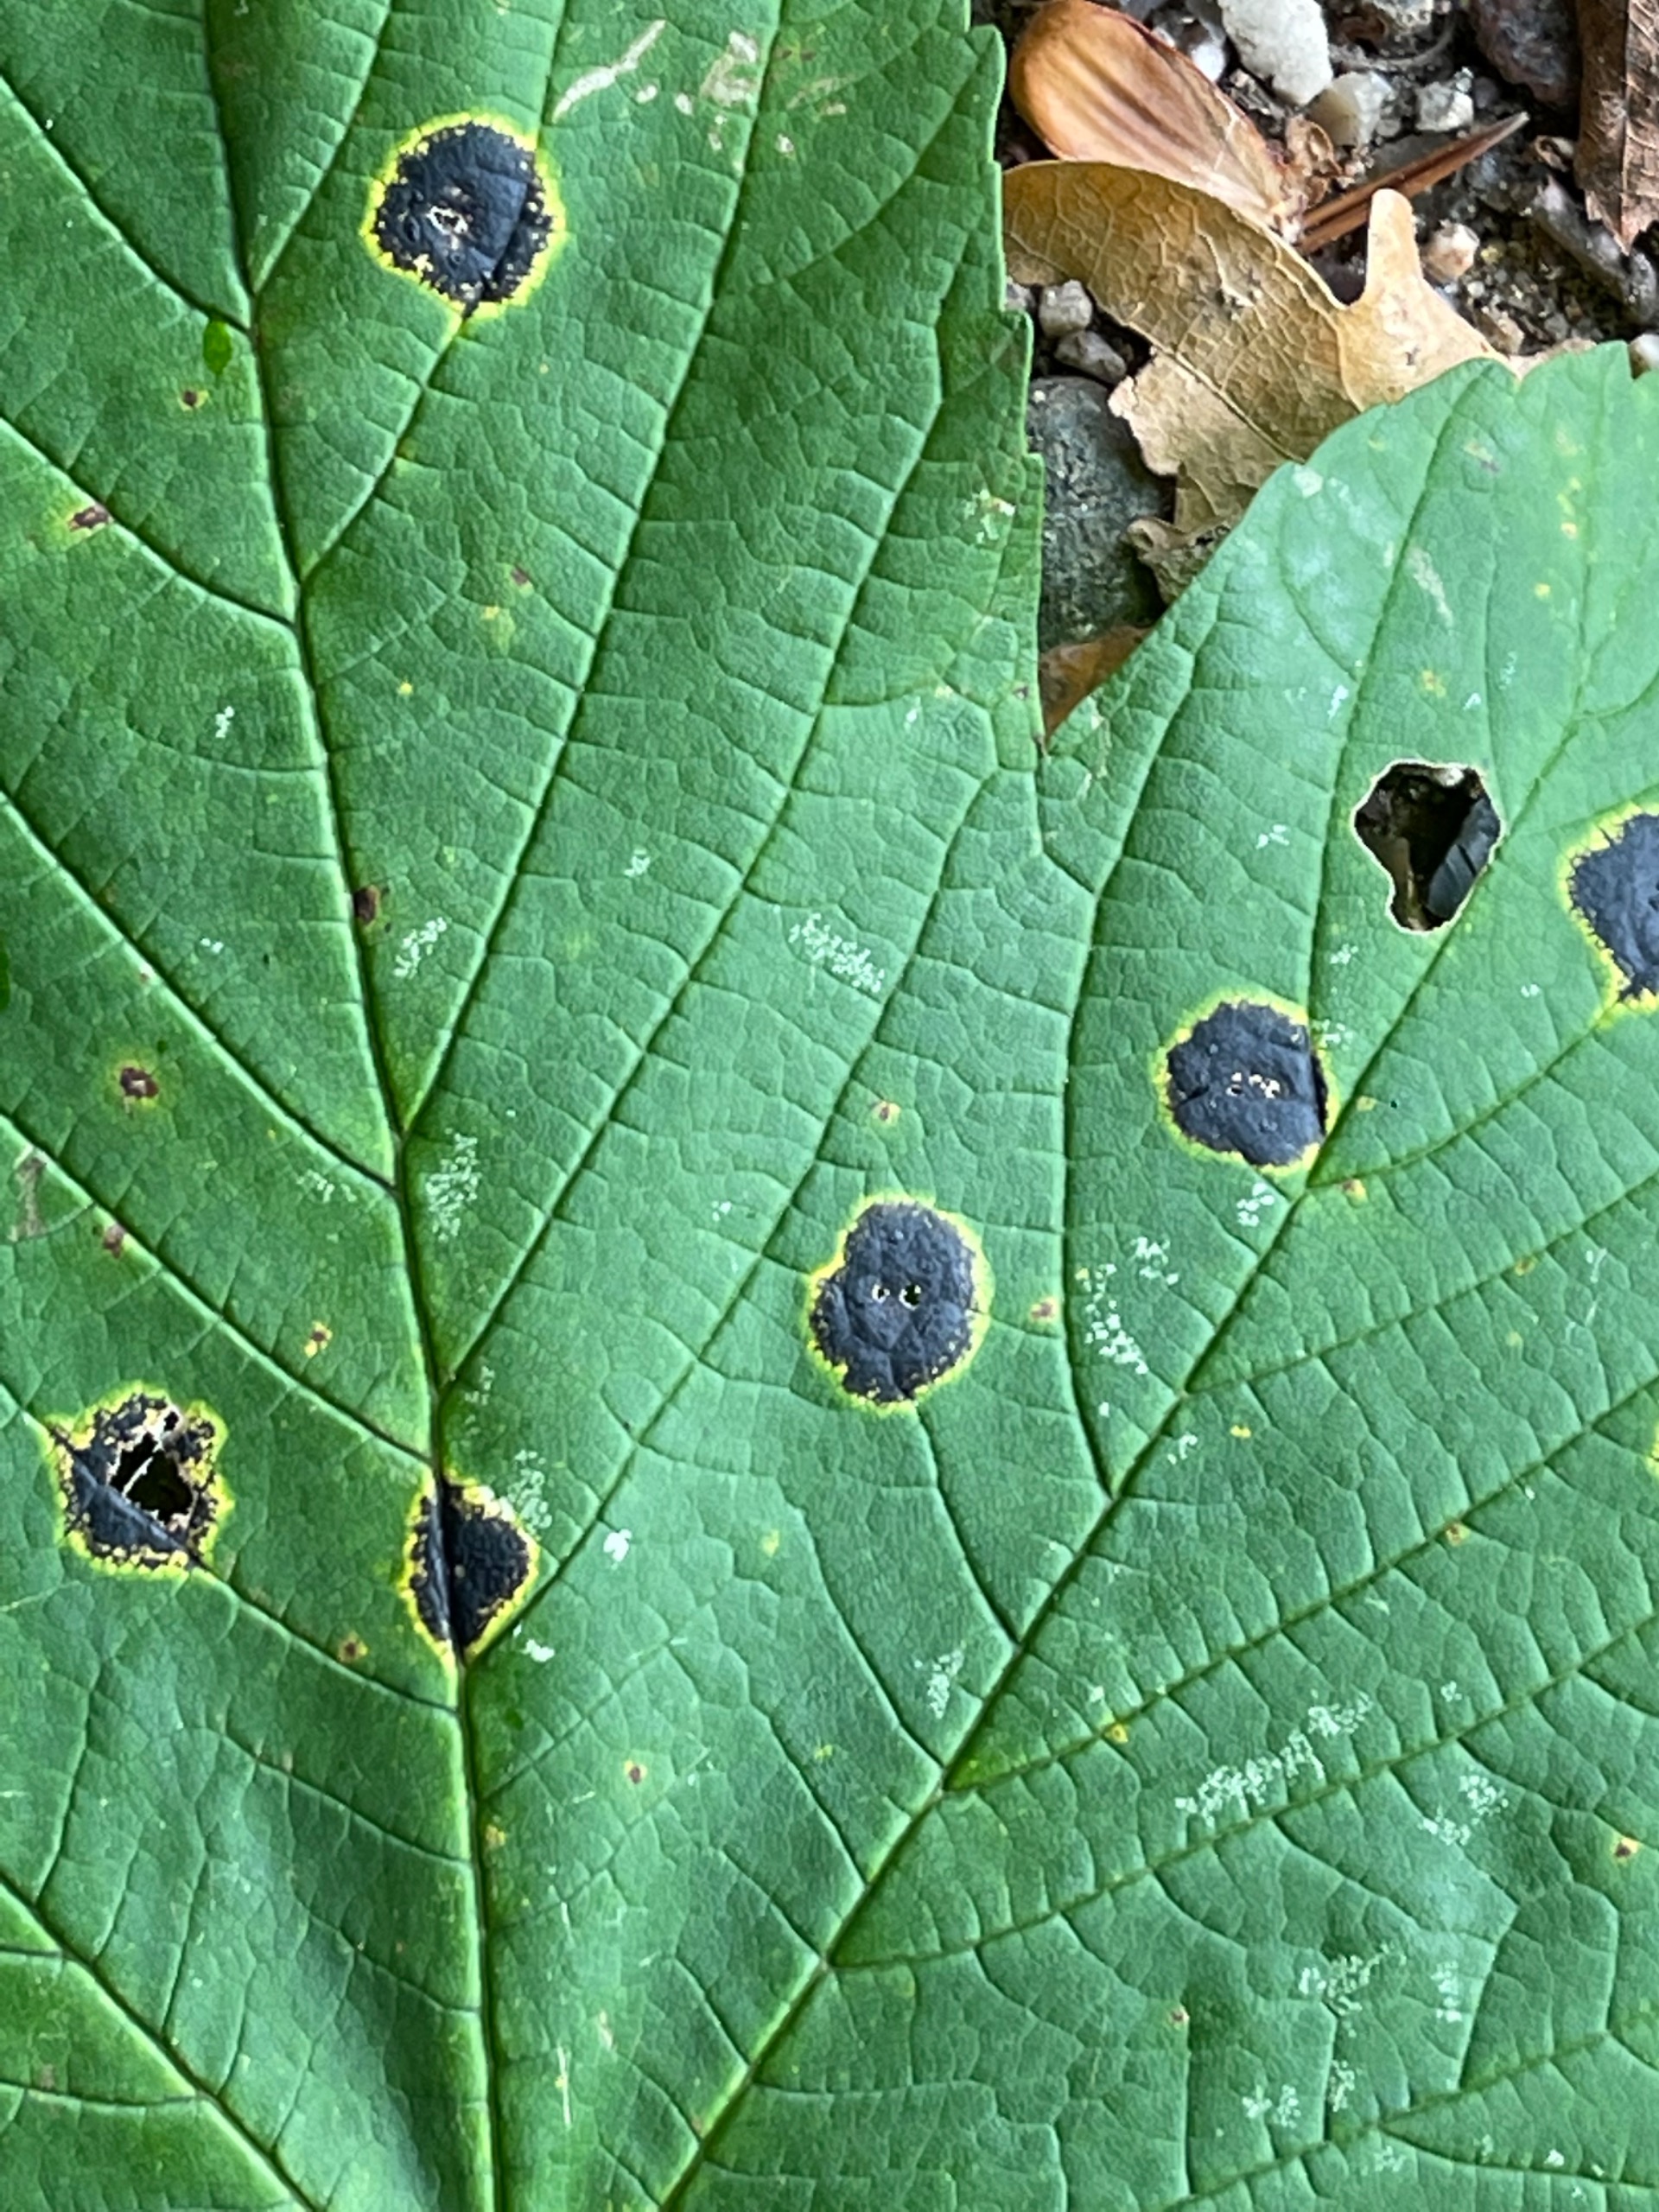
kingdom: Fungi
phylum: Ascomycota
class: Leotiomycetes
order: Rhytismatales
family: Rhytismataceae
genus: Rhytisma
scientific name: Rhytisma acerinum
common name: Ahorn-rynkeplet
